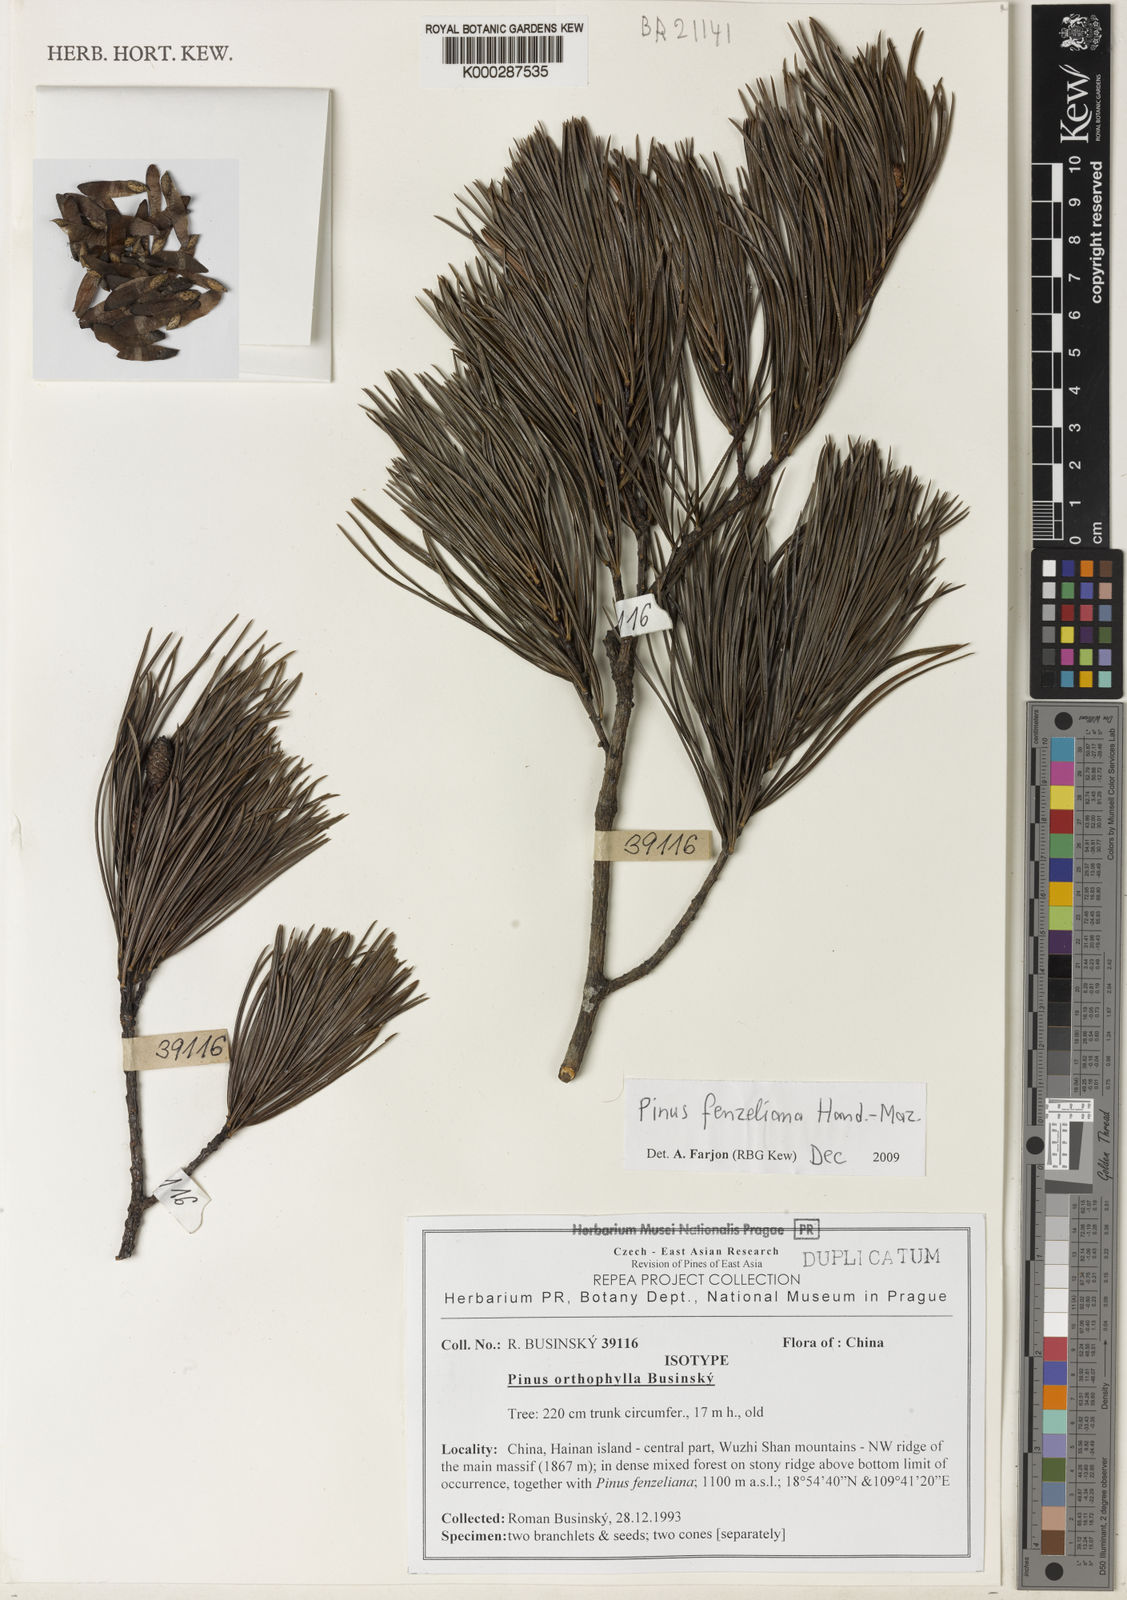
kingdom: Plantae
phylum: Tracheophyta
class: Pinopsida
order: Pinales
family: Pinaceae
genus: Pinus
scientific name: Pinus fenzeliana
